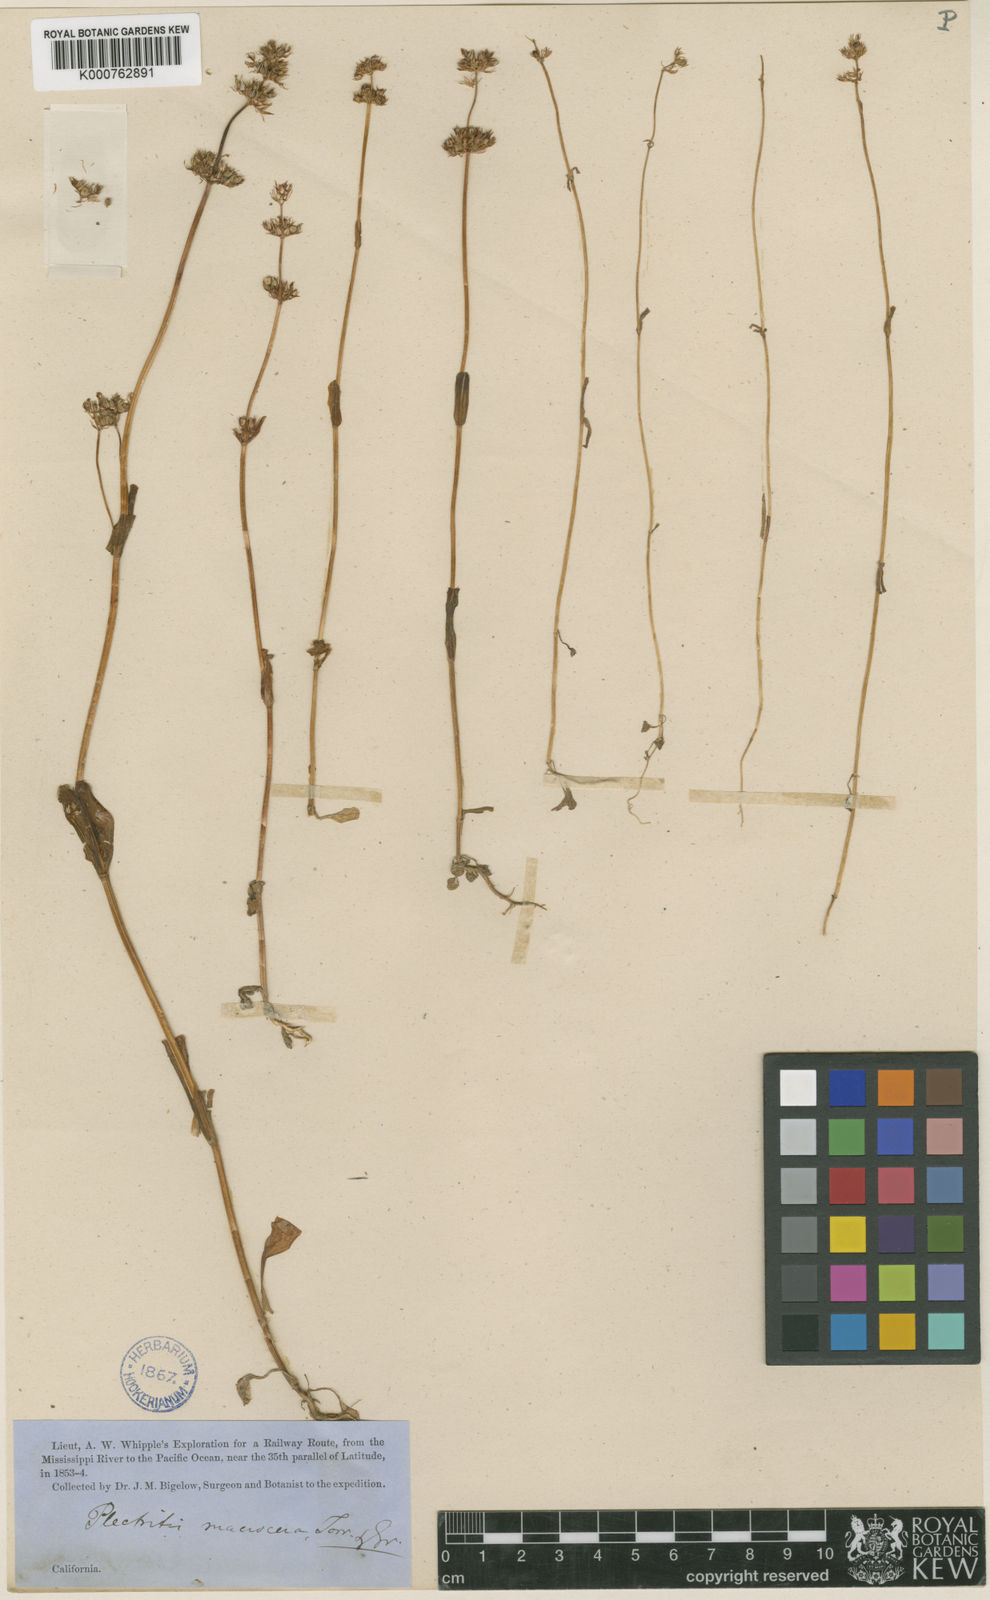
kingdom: Plantae
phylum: Tracheophyta
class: Magnoliopsida
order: Dipsacales
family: Caprifoliaceae
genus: Plectritis
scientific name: Plectritis macroptera
